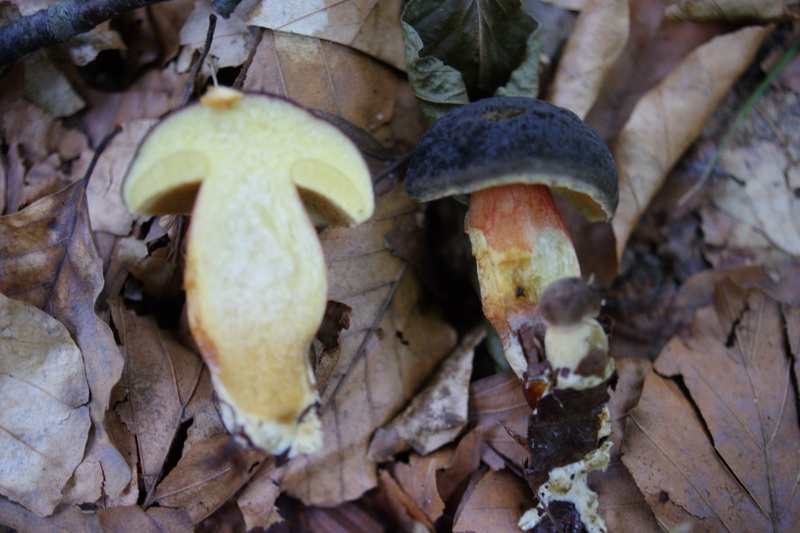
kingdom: Fungi
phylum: Basidiomycota
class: Agaricomycetes
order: Boletales
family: Boletaceae
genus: Xerocomellus
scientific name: Xerocomellus chrysenteron
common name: rødsprukken rørhat
